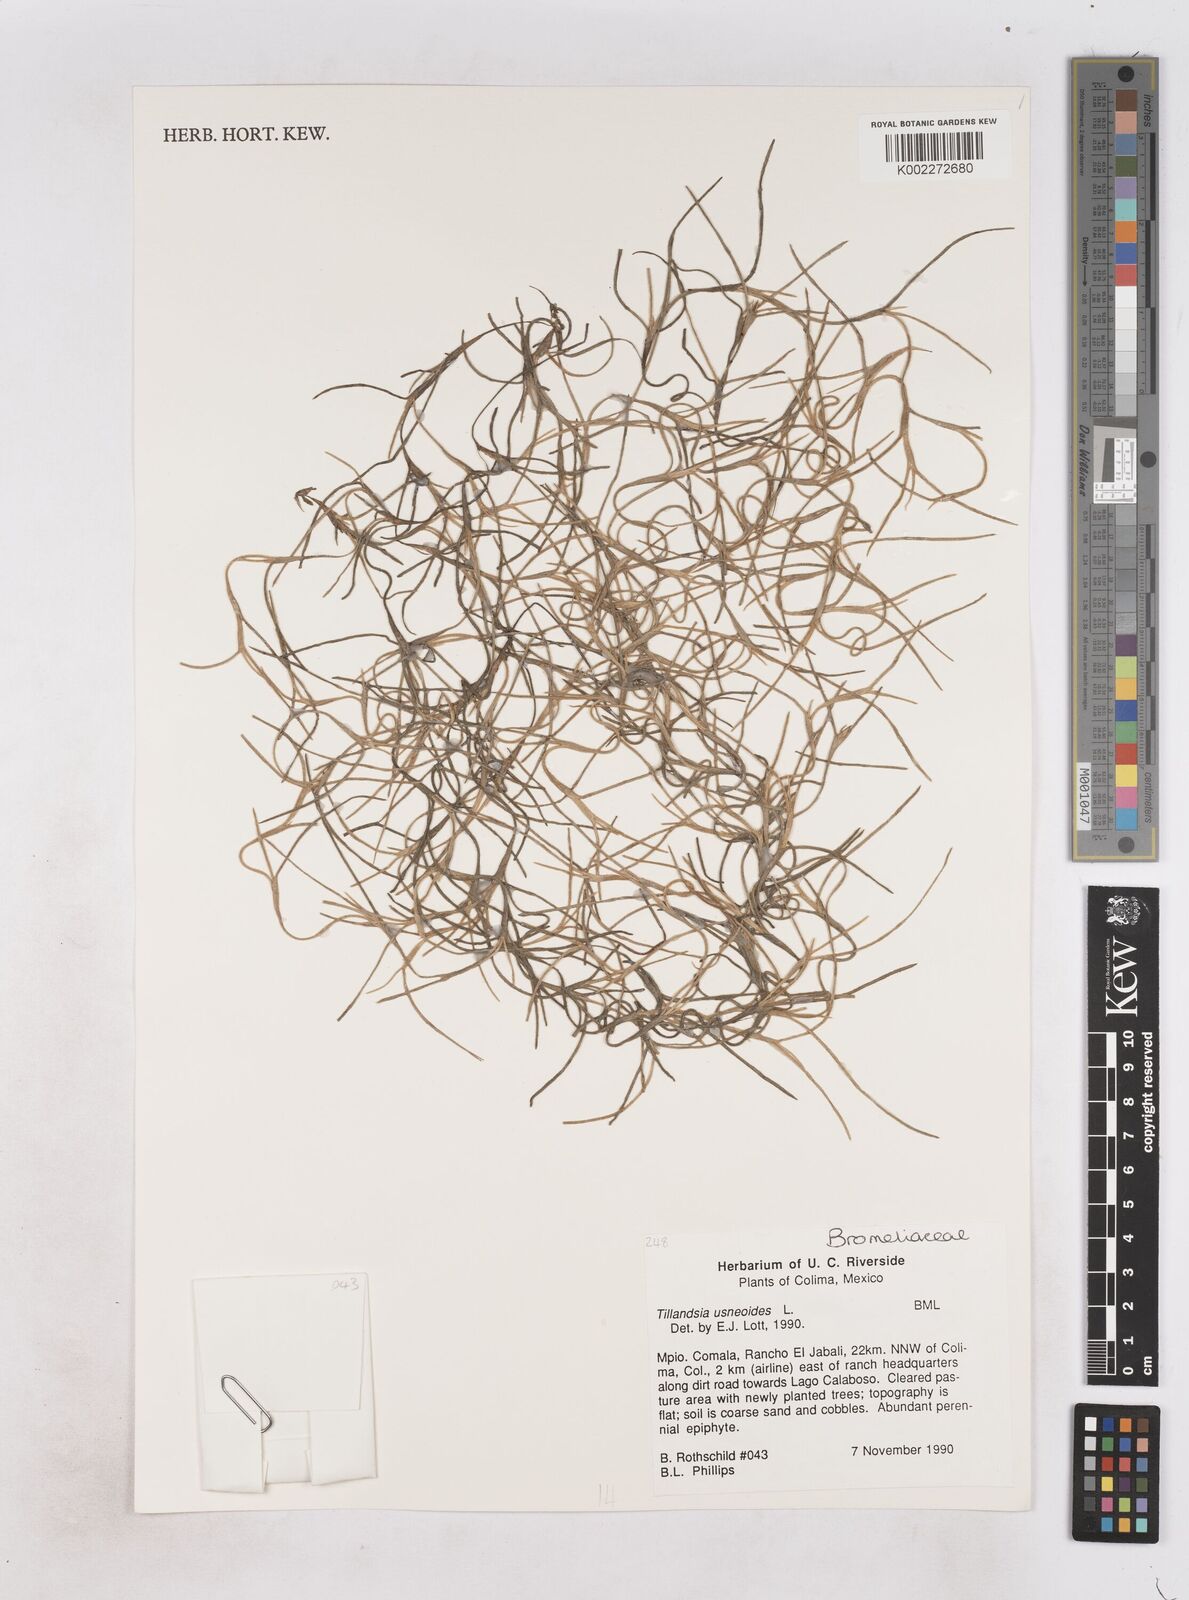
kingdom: Plantae
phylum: Tracheophyta
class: Liliopsida
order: Poales
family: Bromeliaceae
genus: Tillandsia
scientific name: Tillandsia usneoides
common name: Spanish moss
